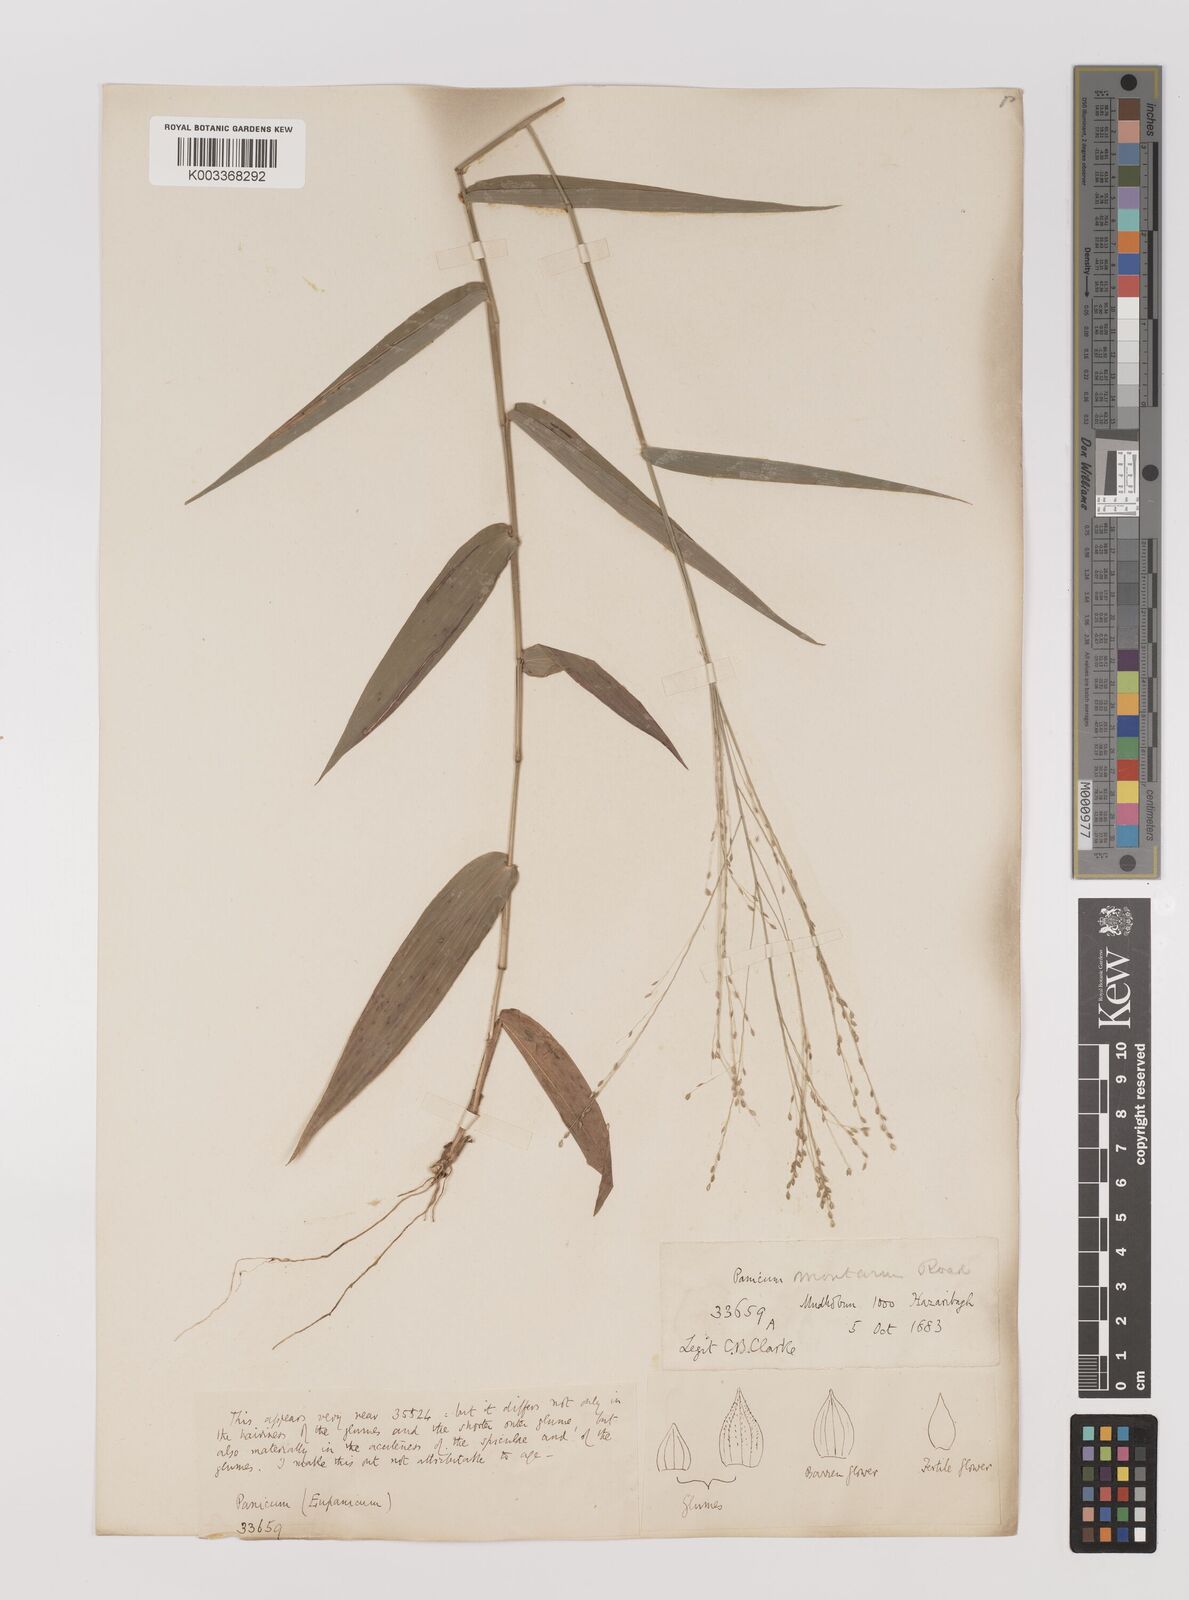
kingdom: Plantae
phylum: Tracheophyta
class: Liliopsida
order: Poales
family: Poaceae
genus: Panicum
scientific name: Panicum notatum
